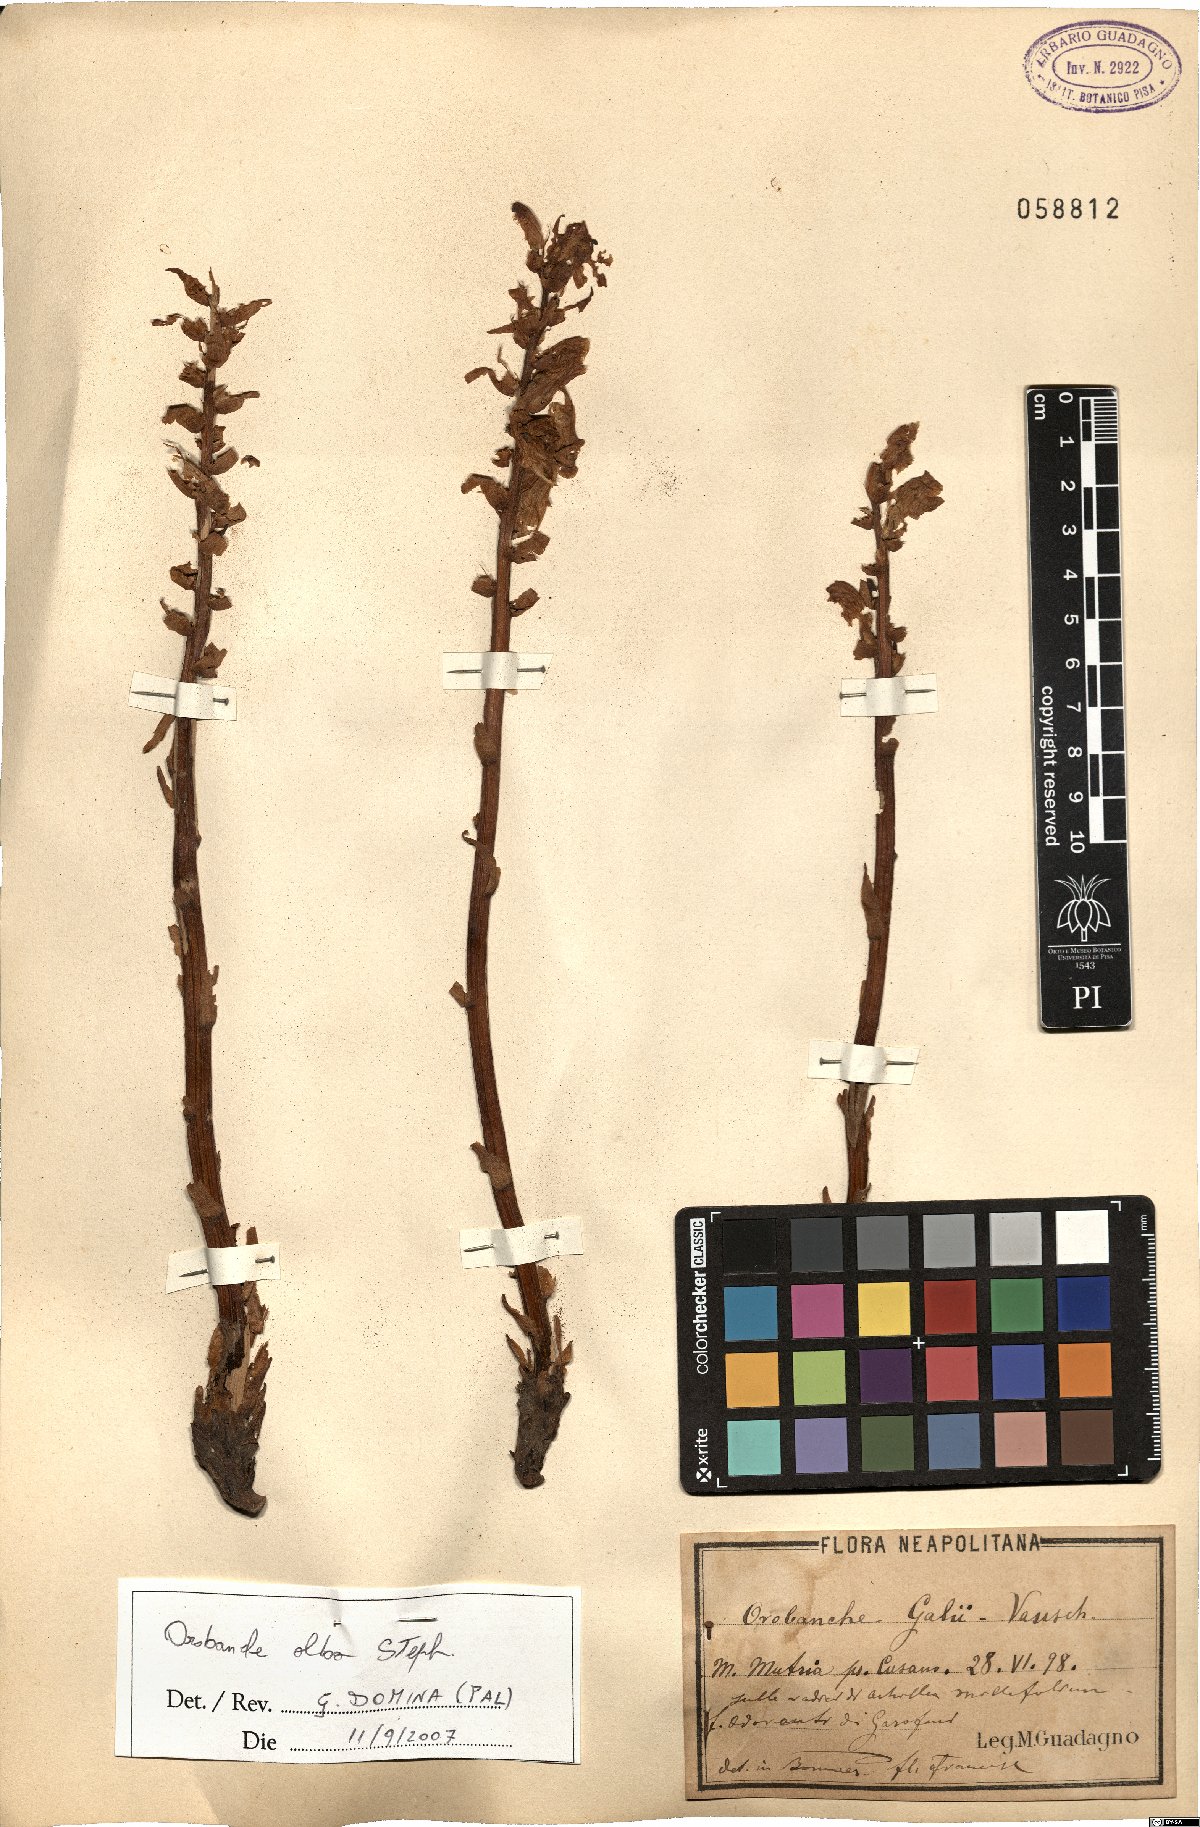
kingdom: Plantae
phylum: Tracheophyta
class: Magnoliopsida
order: Lamiales
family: Orobanchaceae
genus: Orobanche
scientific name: Orobanche alba
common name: Thyme broomrape
